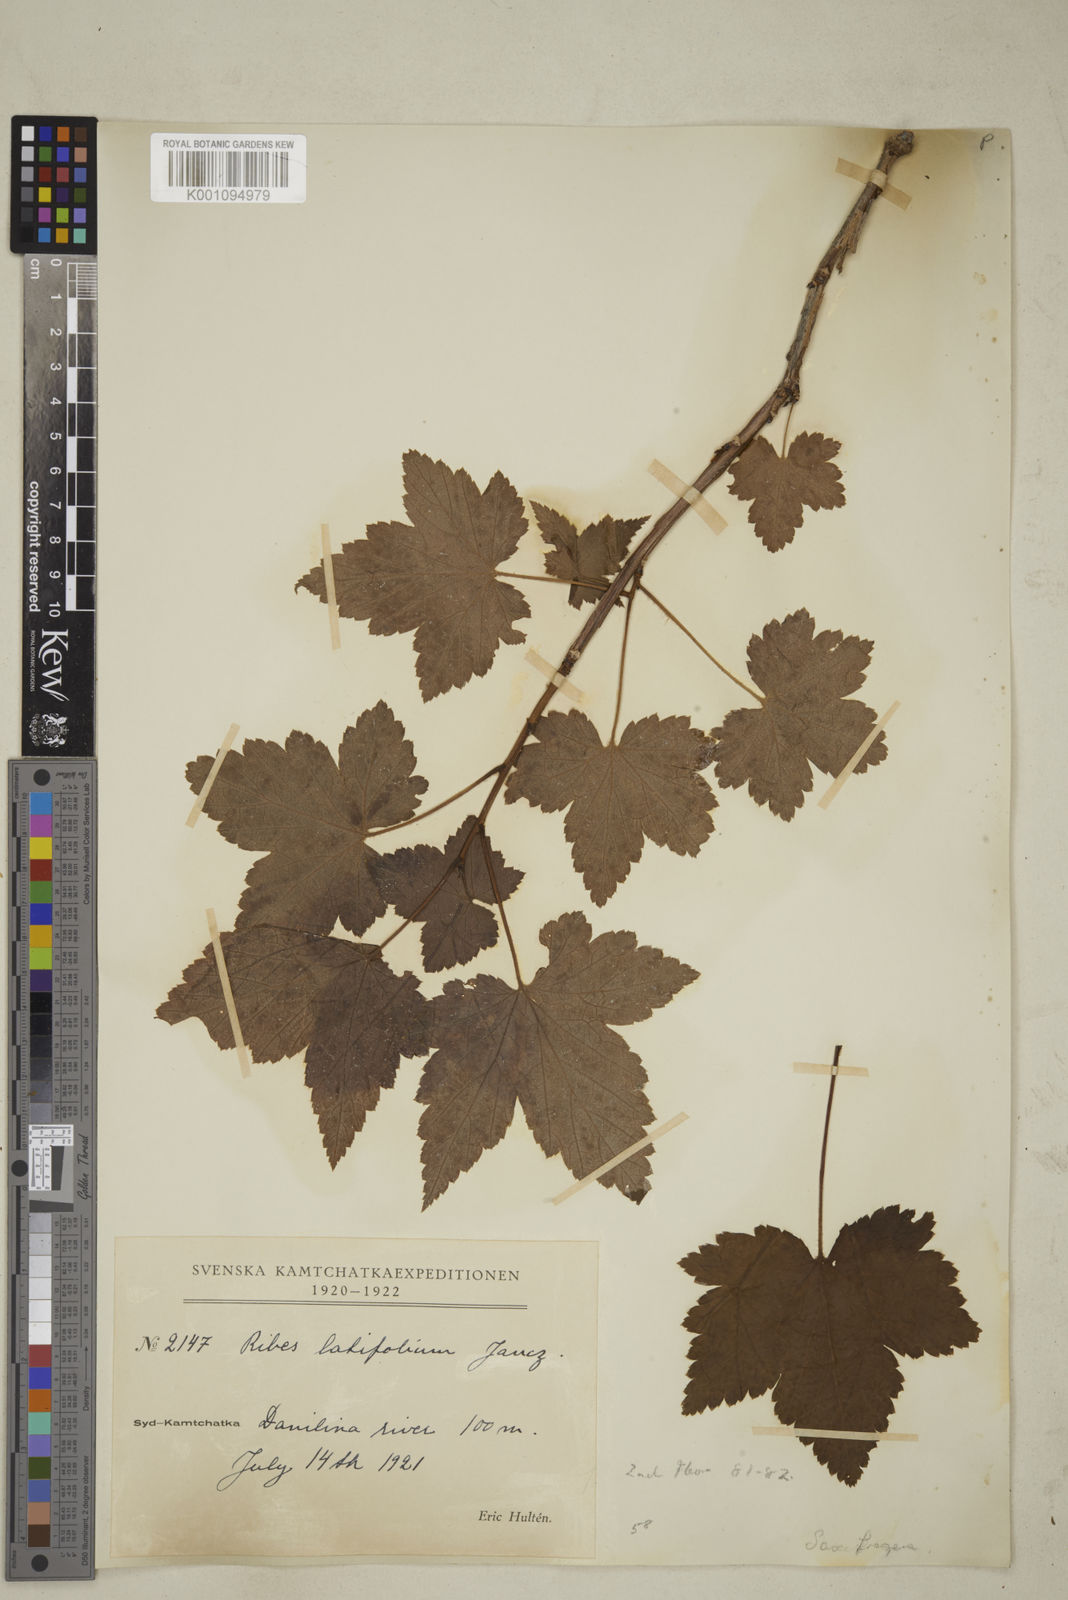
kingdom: Plantae
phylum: Tracheophyta
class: Magnoliopsida
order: Saxifragales
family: Grossulariaceae
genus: Ribes
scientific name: Ribes latifolium
